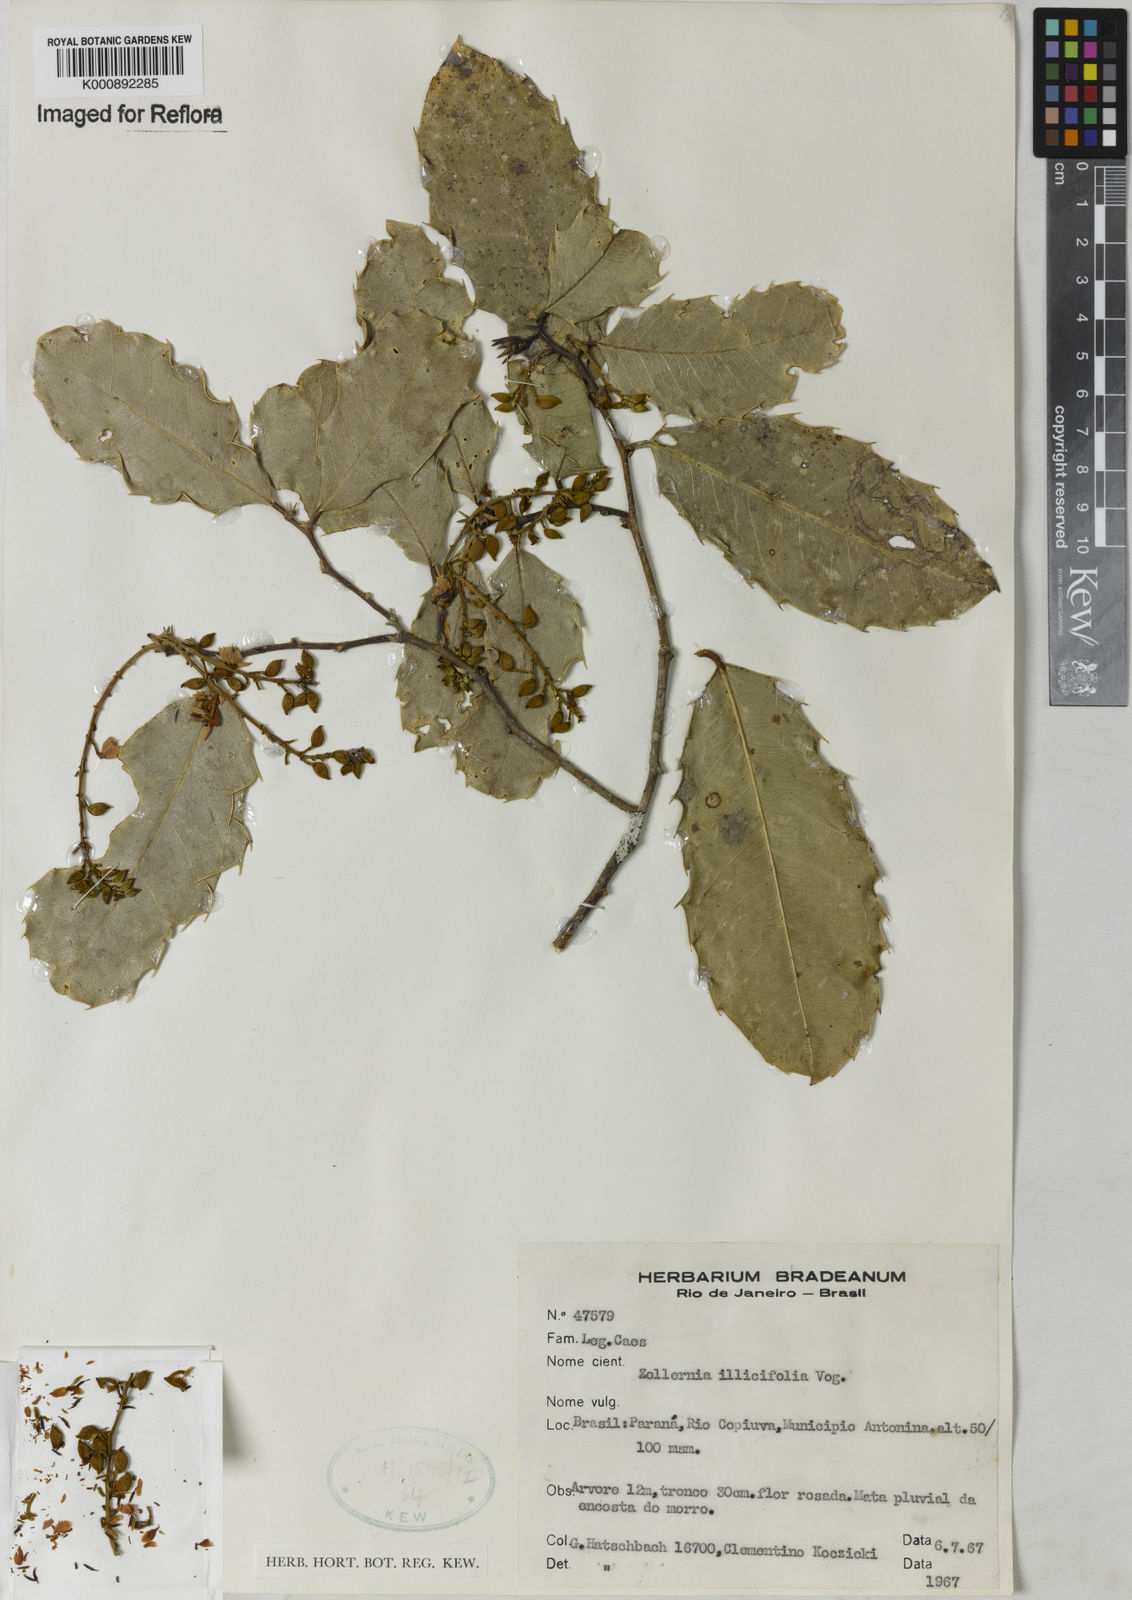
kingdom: Plantae
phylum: Tracheophyta
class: Magnoliopsida
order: Fabales
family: Fabaceae
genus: Zollernia
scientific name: Zollernia ilicifolia
